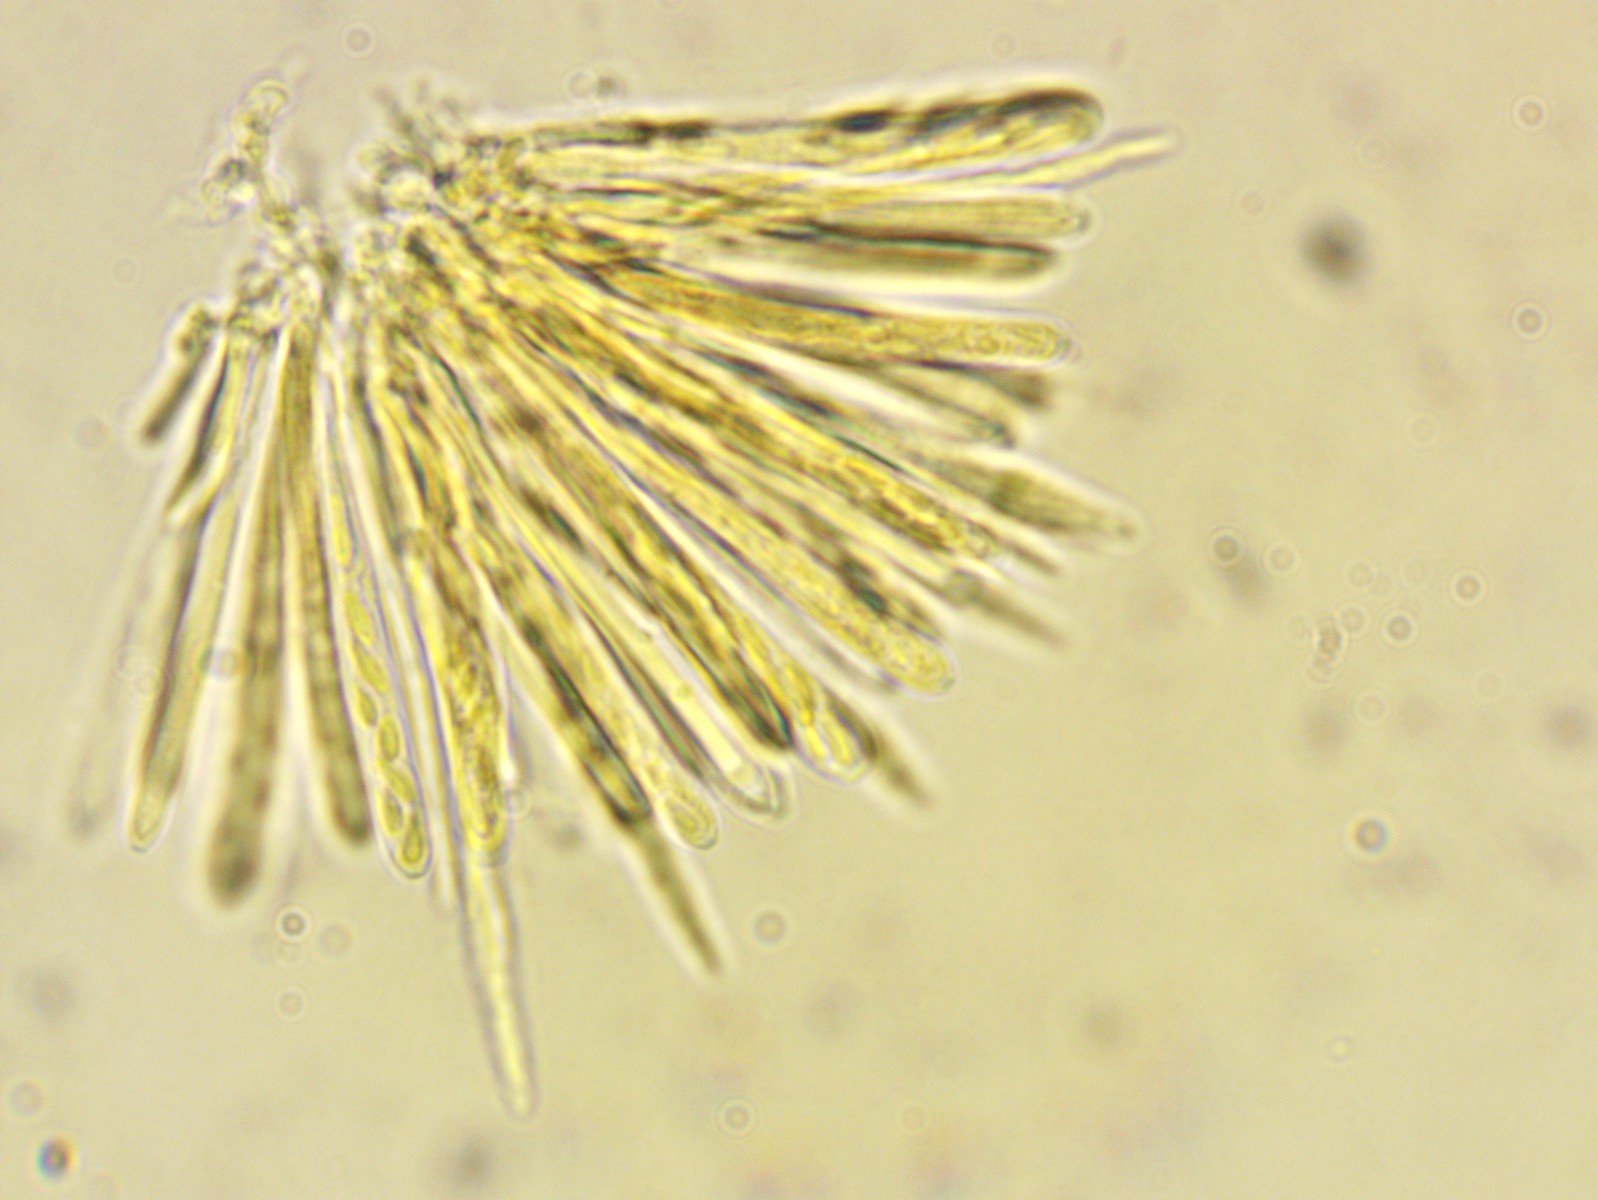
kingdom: Fungi
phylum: Ascomycota
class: Leotiomycetes
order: Helotiales
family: Lachnaceae
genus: Lachnum
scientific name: Lachnum impudicum
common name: vinter-frynseskive
